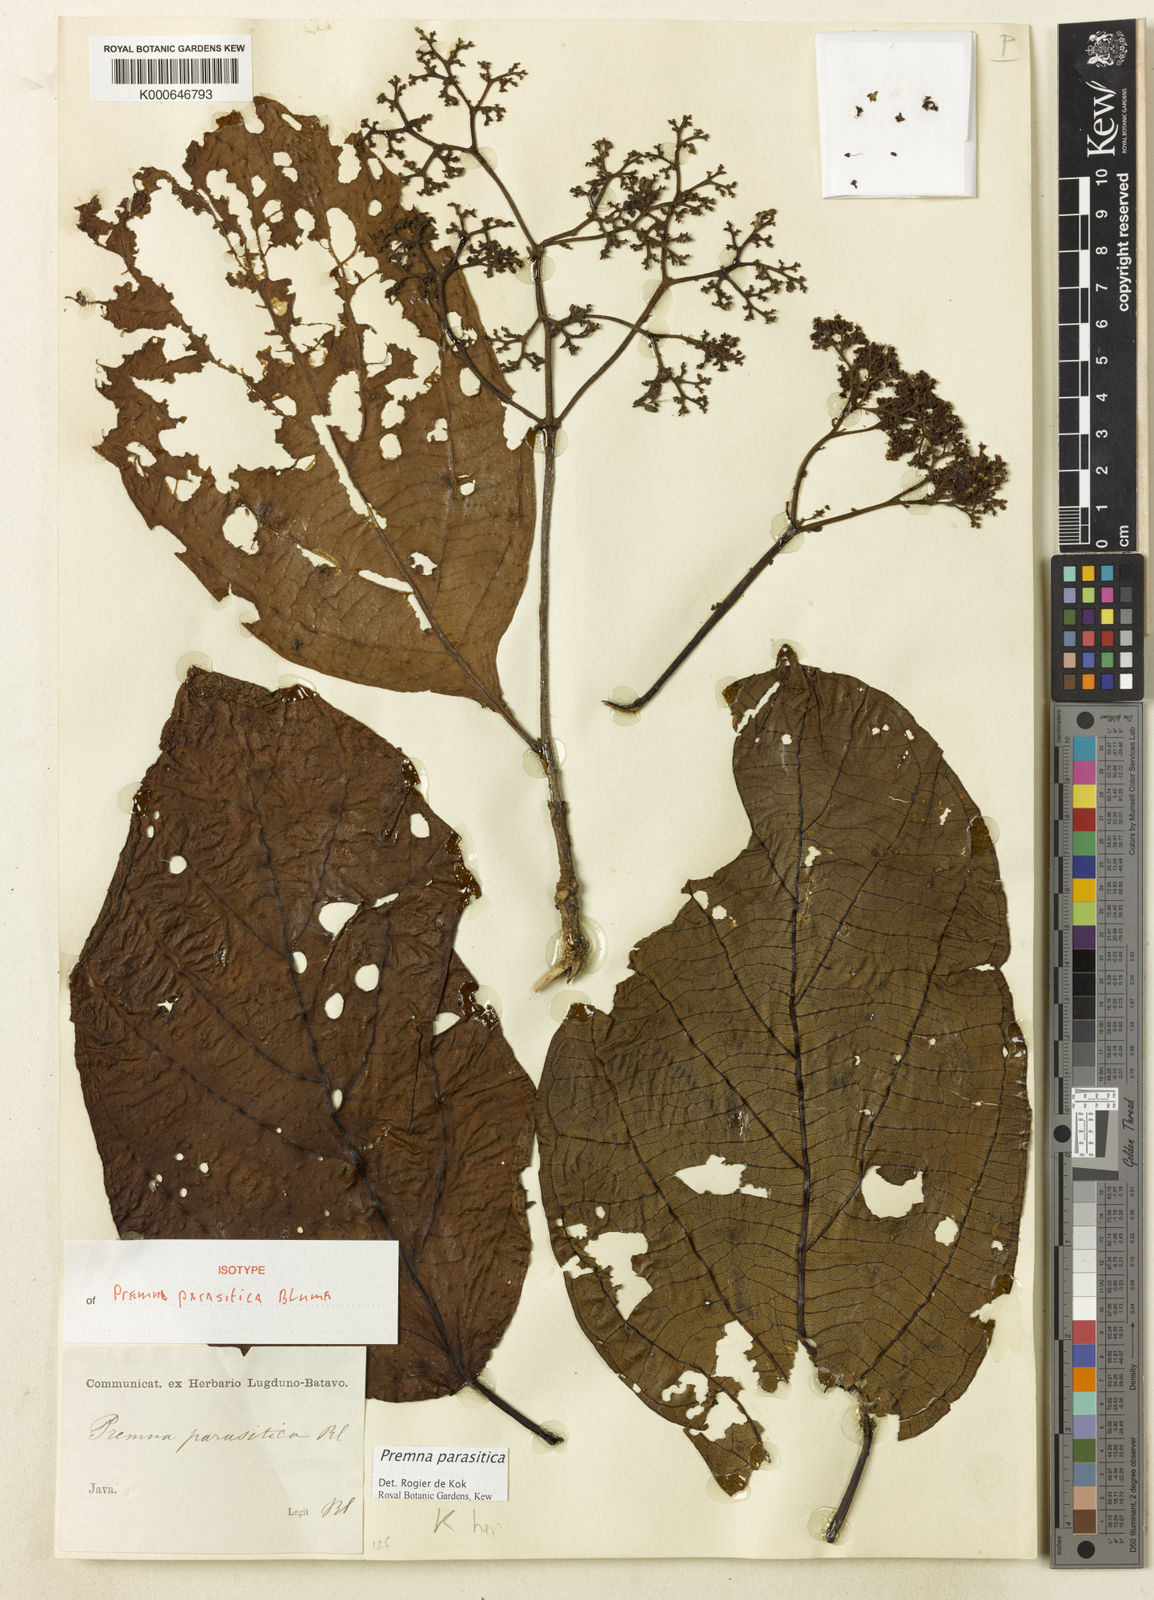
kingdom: Plantae
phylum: Tracheophyta
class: Magnoliopsida
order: Lamiales
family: Lamiaceae
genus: Premna
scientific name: Premna parasitica
